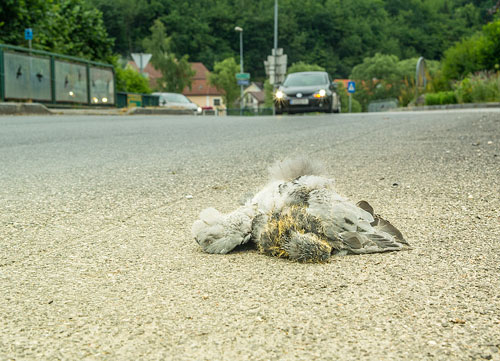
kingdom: Animalia
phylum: Chordata
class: Aves
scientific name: Aves
